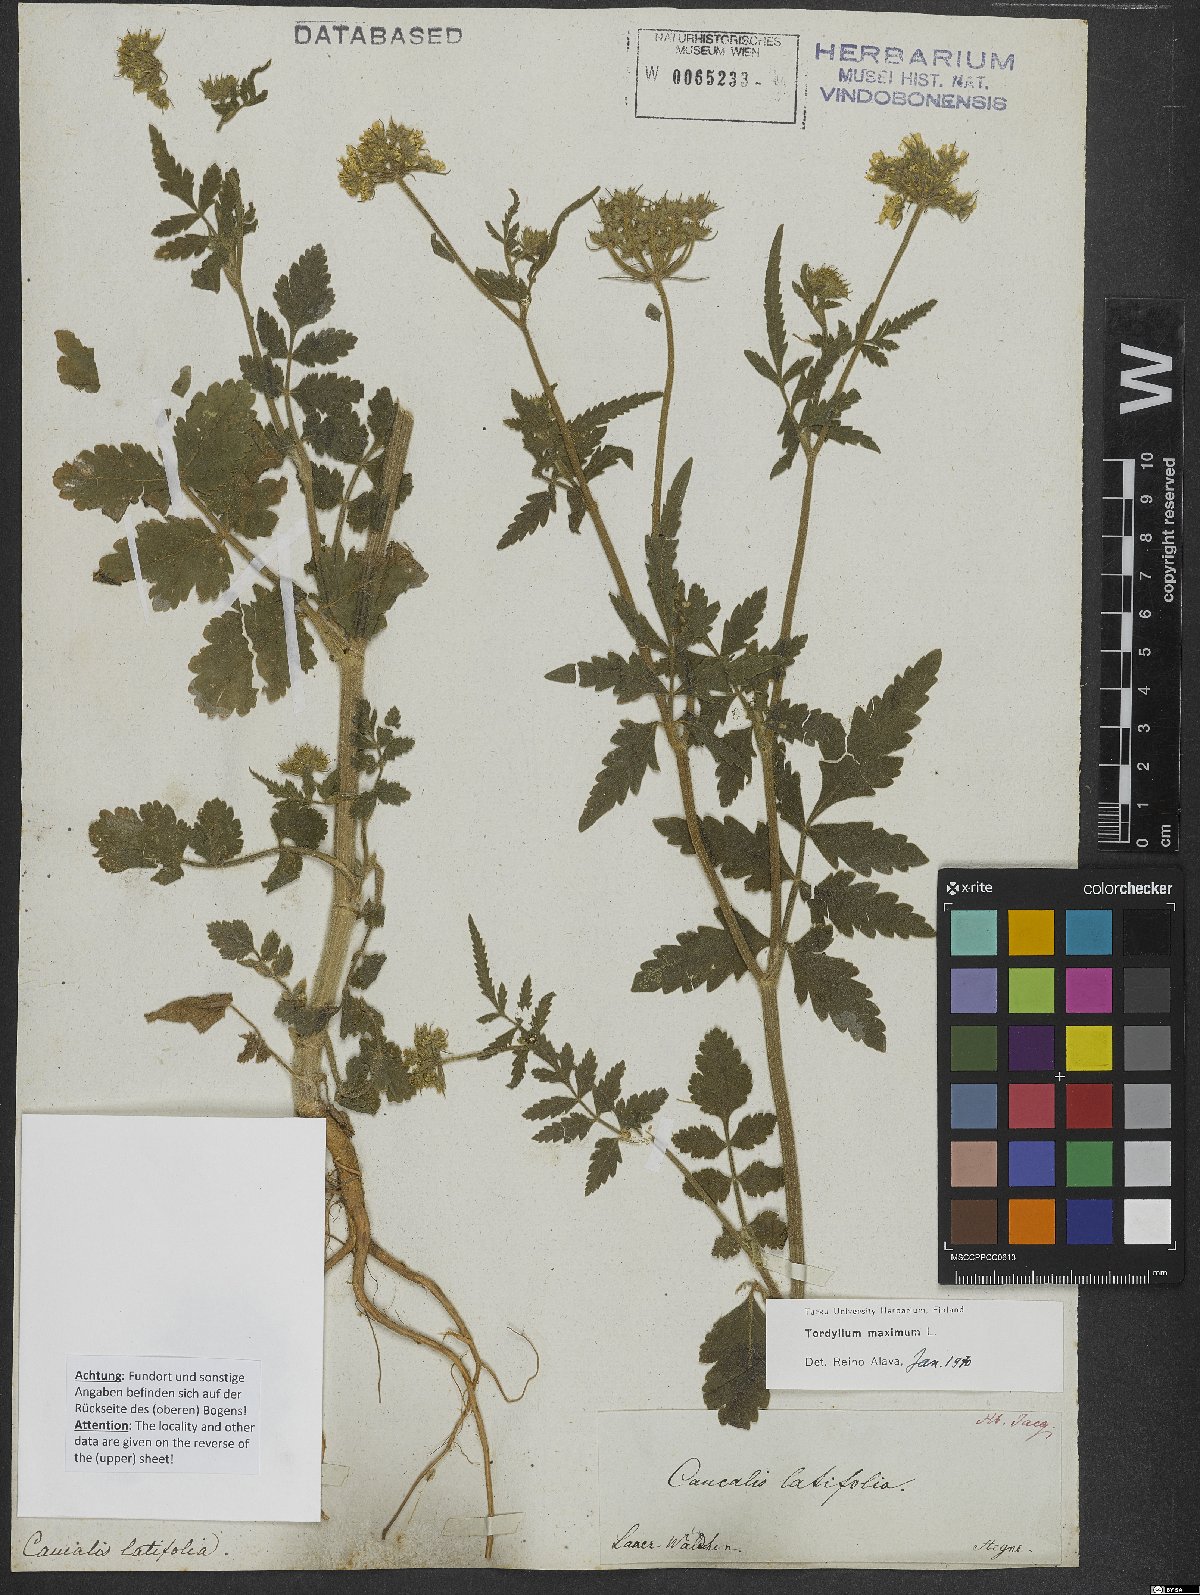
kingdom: Plantae
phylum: Tracheophyta
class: Magnoliopsida
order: Apiales
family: Apiaceae
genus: Tordylium
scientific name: Tordylium maximum
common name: Hartwort
